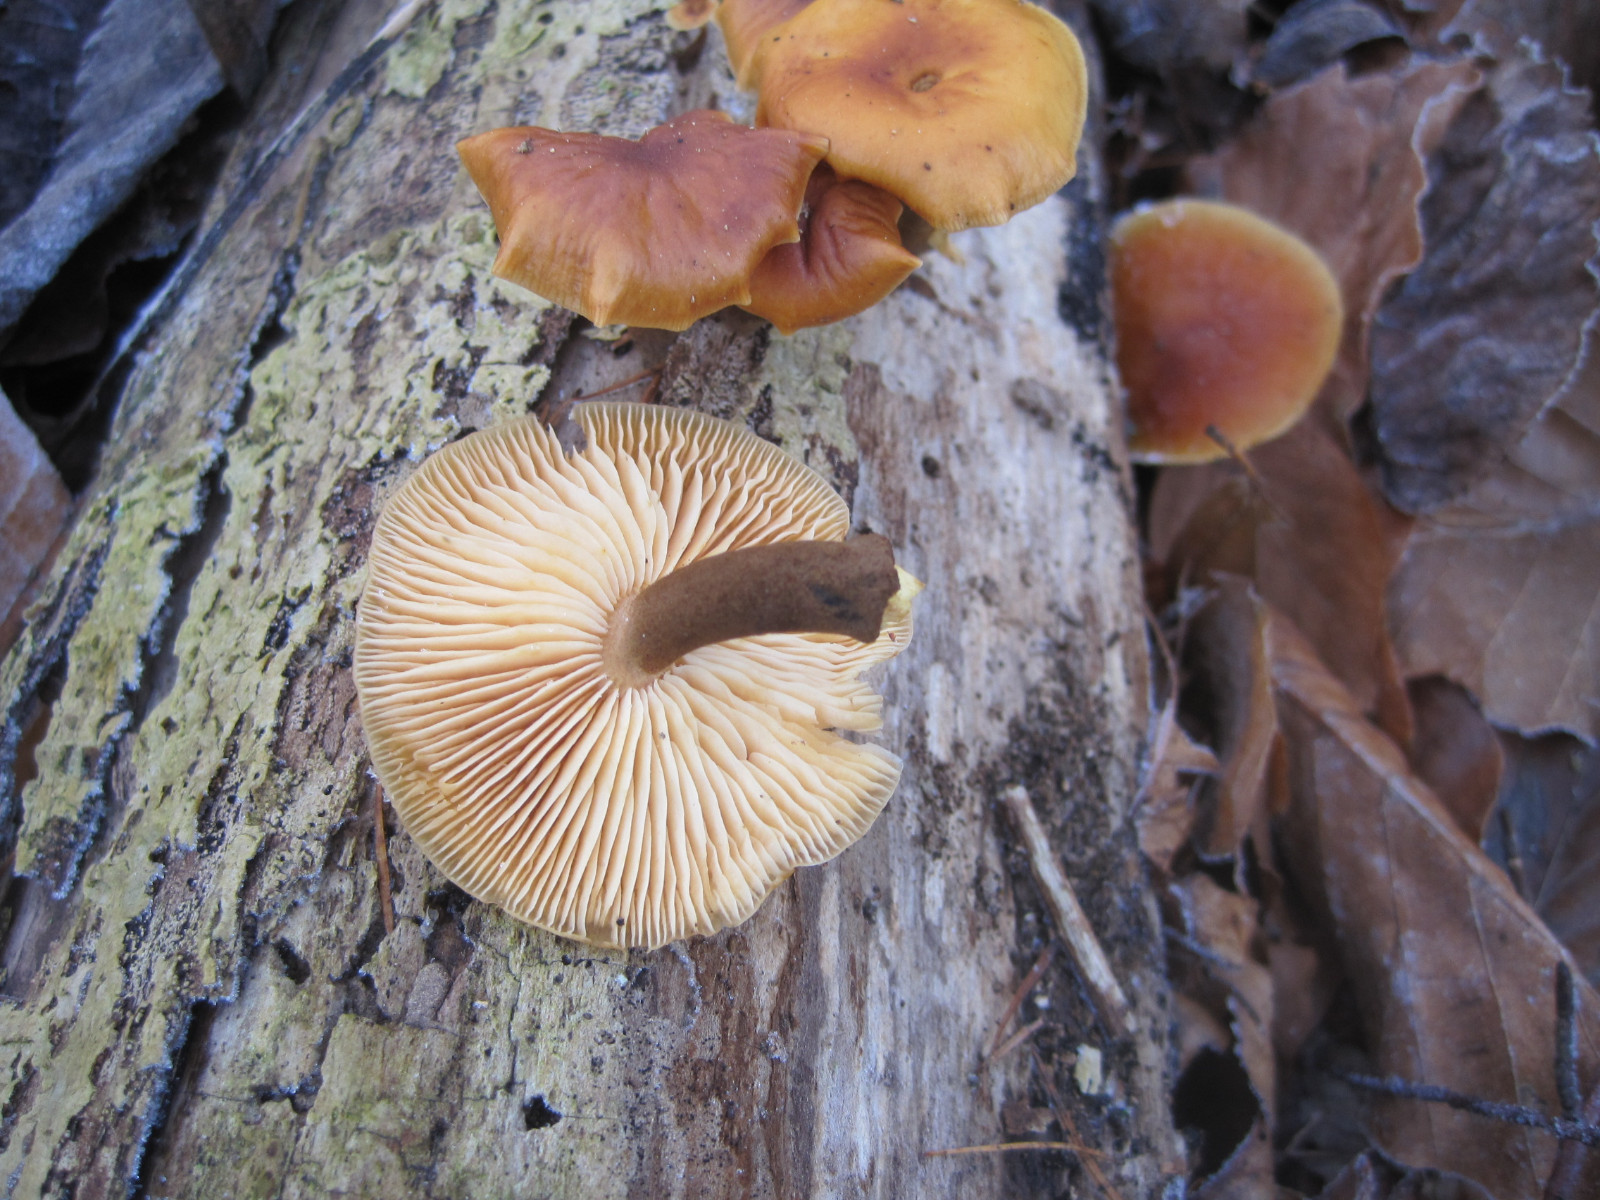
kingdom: Fungi
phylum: Basidiomycota
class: Agaricomycetes
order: Agaricales
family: Physalacriaceae
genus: Flammulina
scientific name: Flammulina velutipes
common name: gul fløjlsfod
